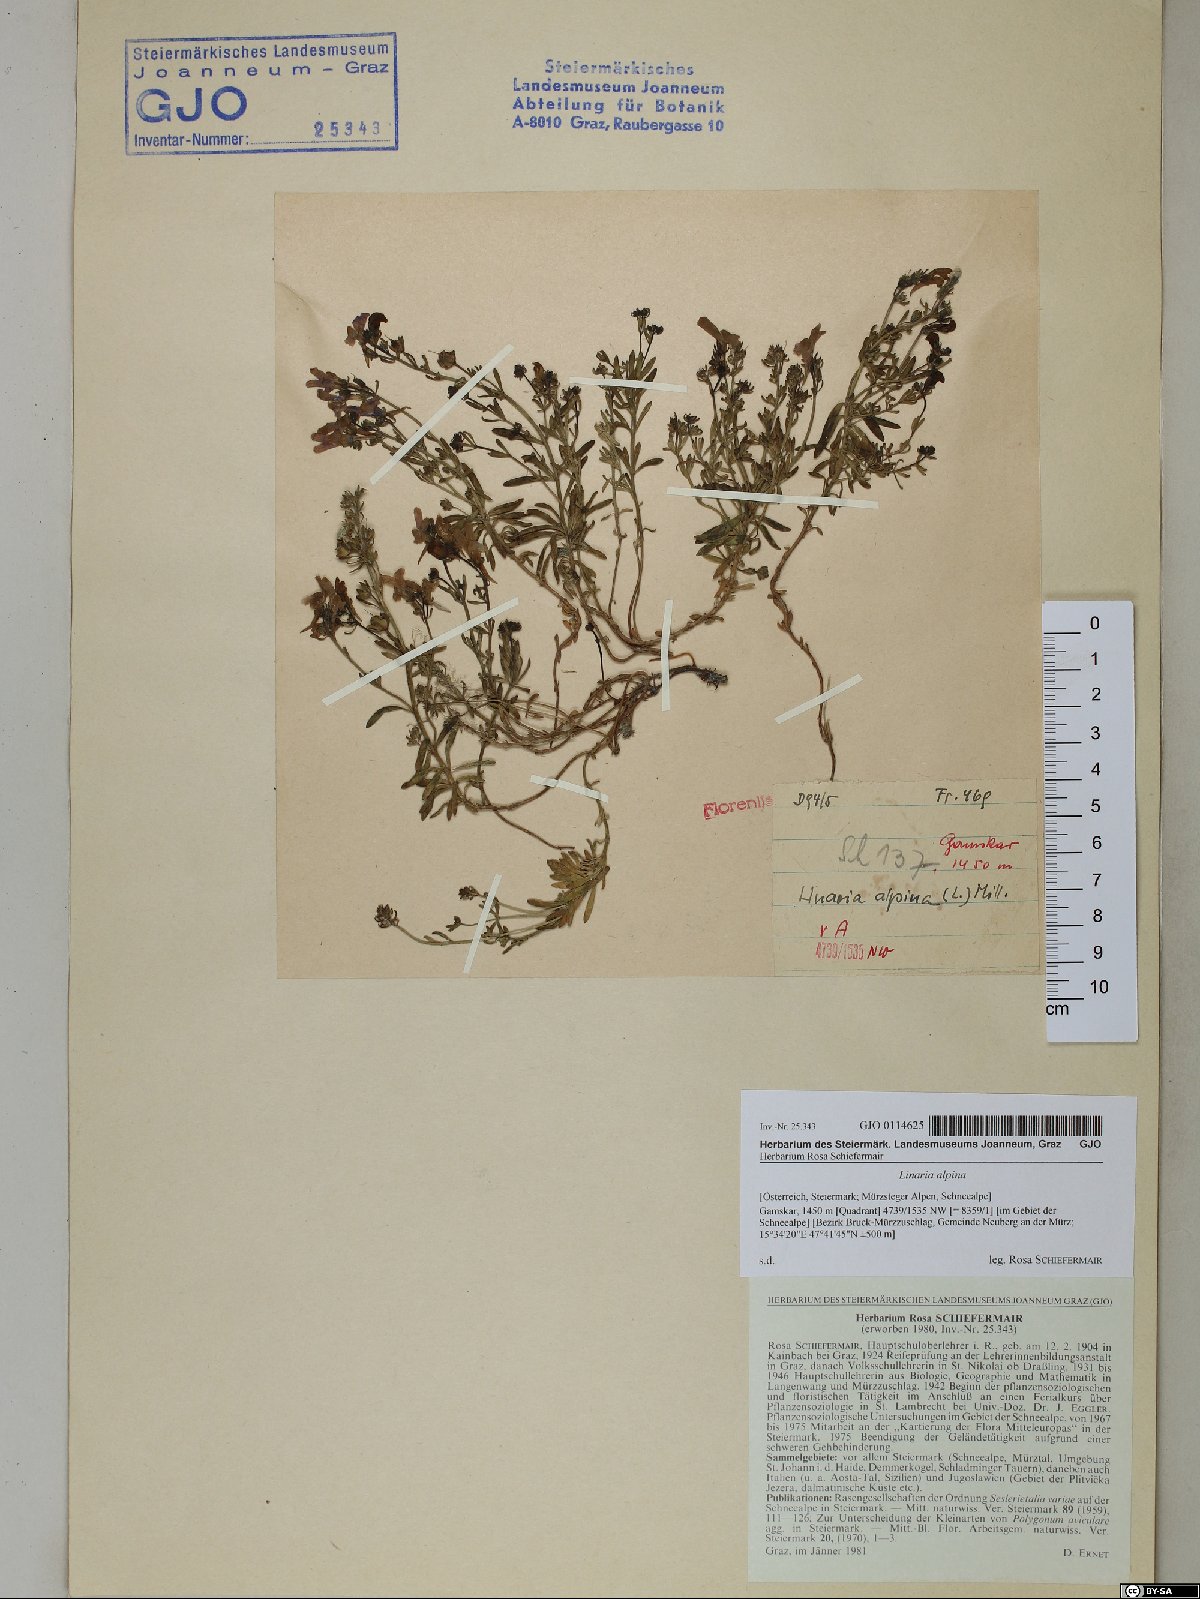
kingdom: Plantae
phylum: Tracheophyta
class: Magnoliopsida
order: Lamiales
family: Plantaginaceae
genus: Linaria
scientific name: Linaria alpina
